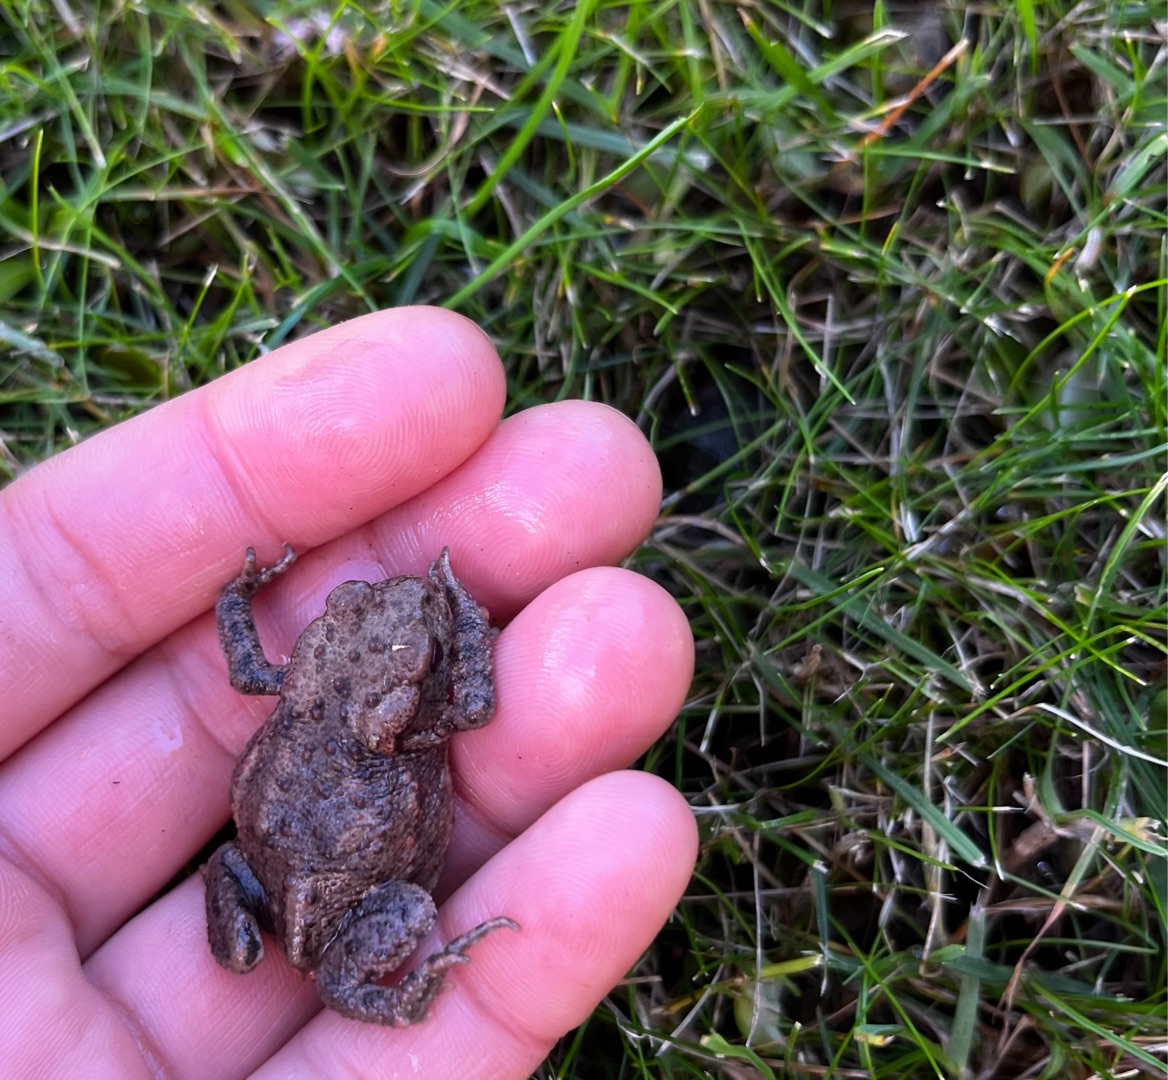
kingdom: Animalia
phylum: Chordata
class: Amphibia
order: Anura
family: Bufonidae
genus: Bufo
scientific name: Bufo bufo
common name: Skrubtudse
